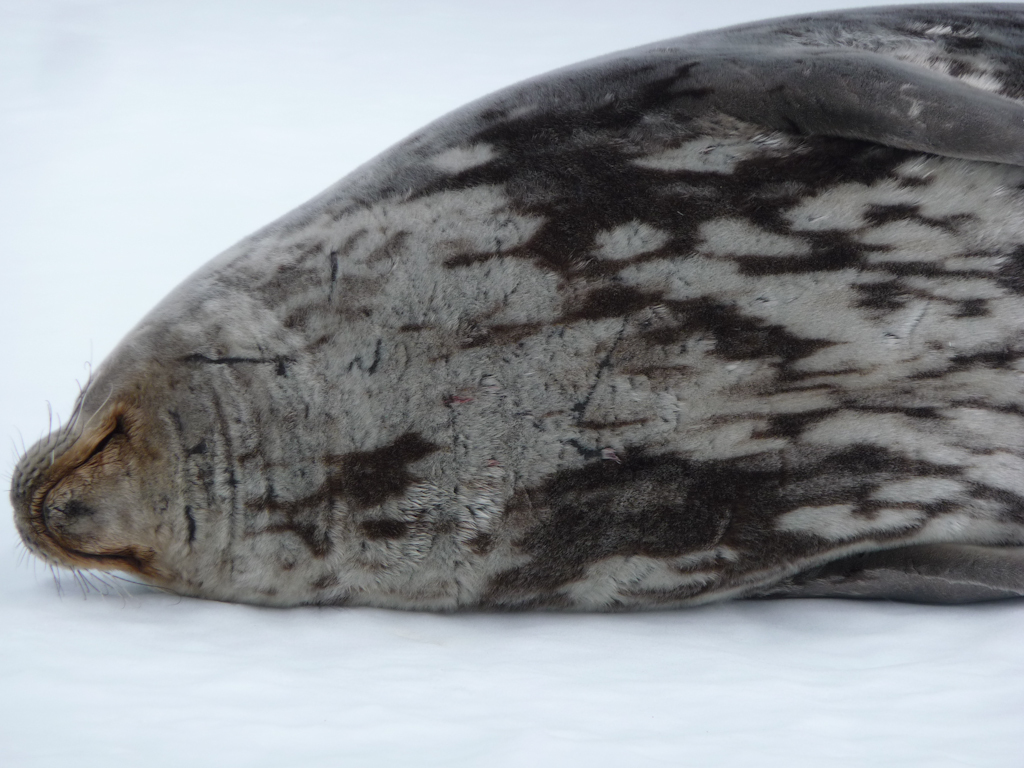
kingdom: Animalia
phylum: Chordata
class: Mammalia
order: Carnivora
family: Phocidae
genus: Leptonychotes
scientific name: Leptonychotes weddellii
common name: Weddell Seal
